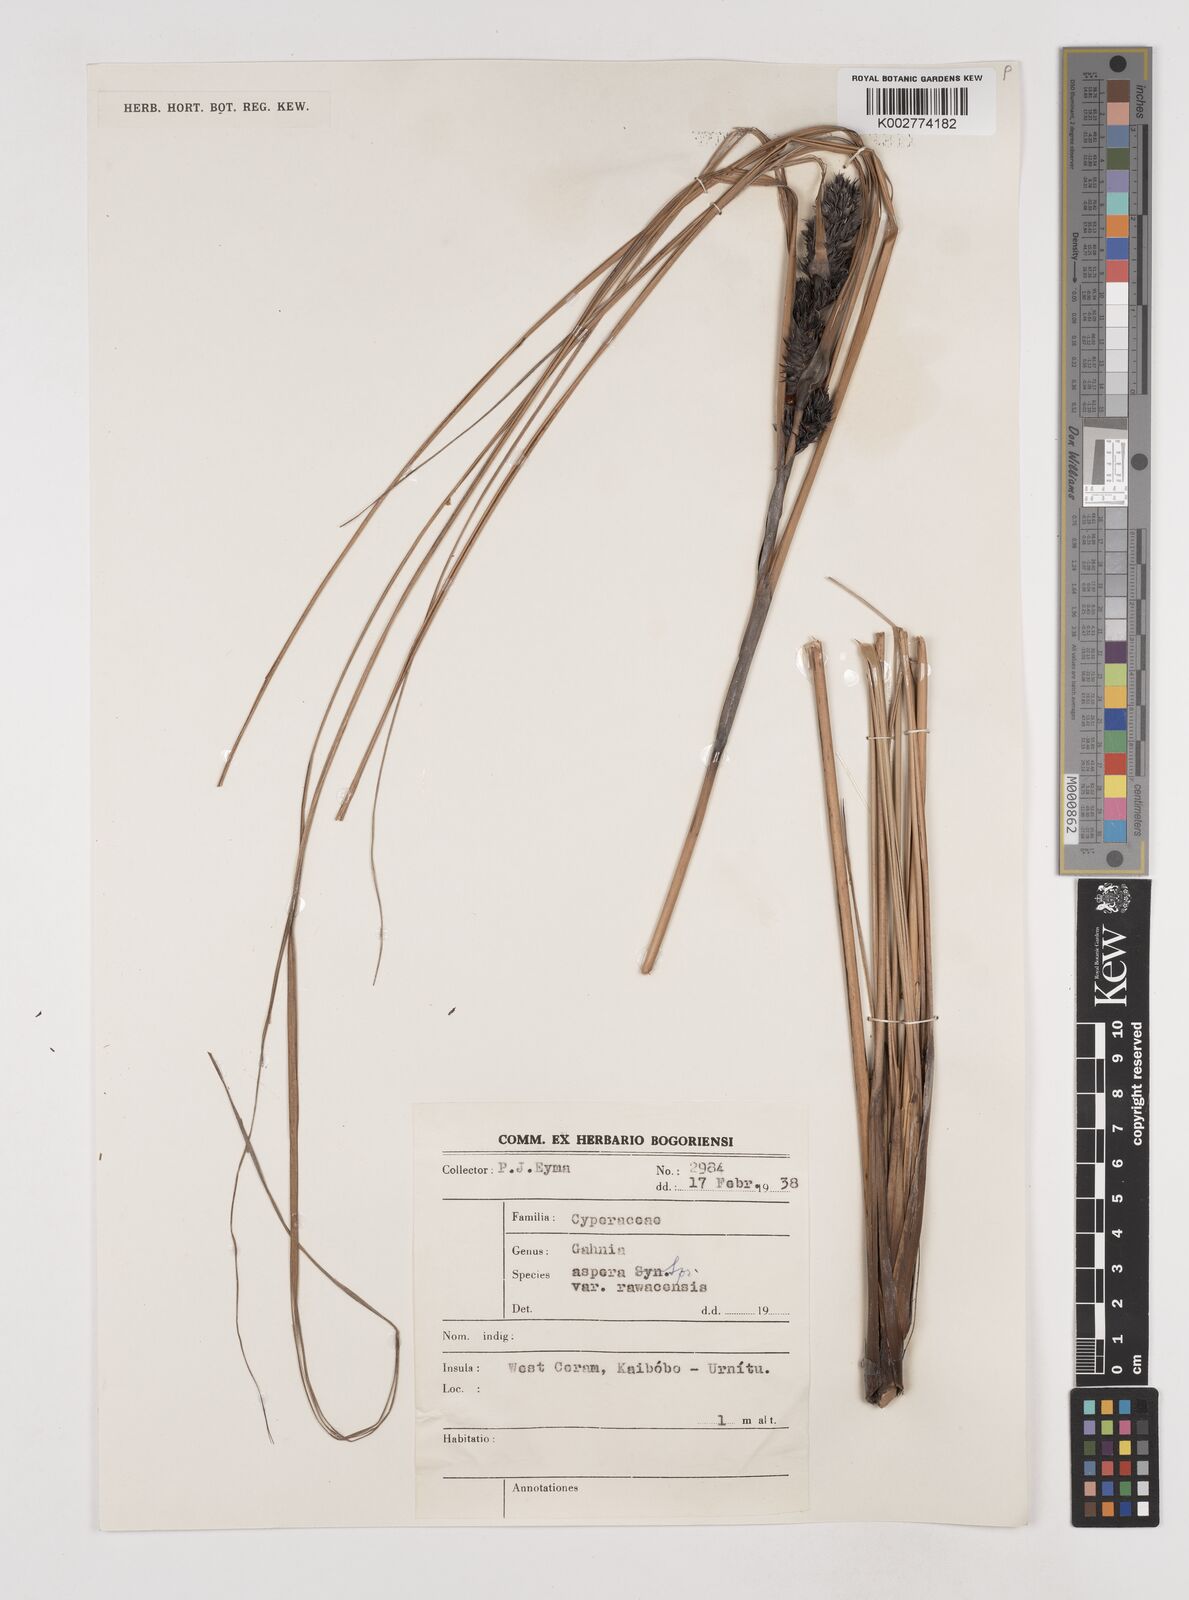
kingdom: Plantae
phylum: Tracheophyta
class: Liliopsida
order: Poales
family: Cyperaceae
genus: Gahnia
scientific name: Gahnia aspera
